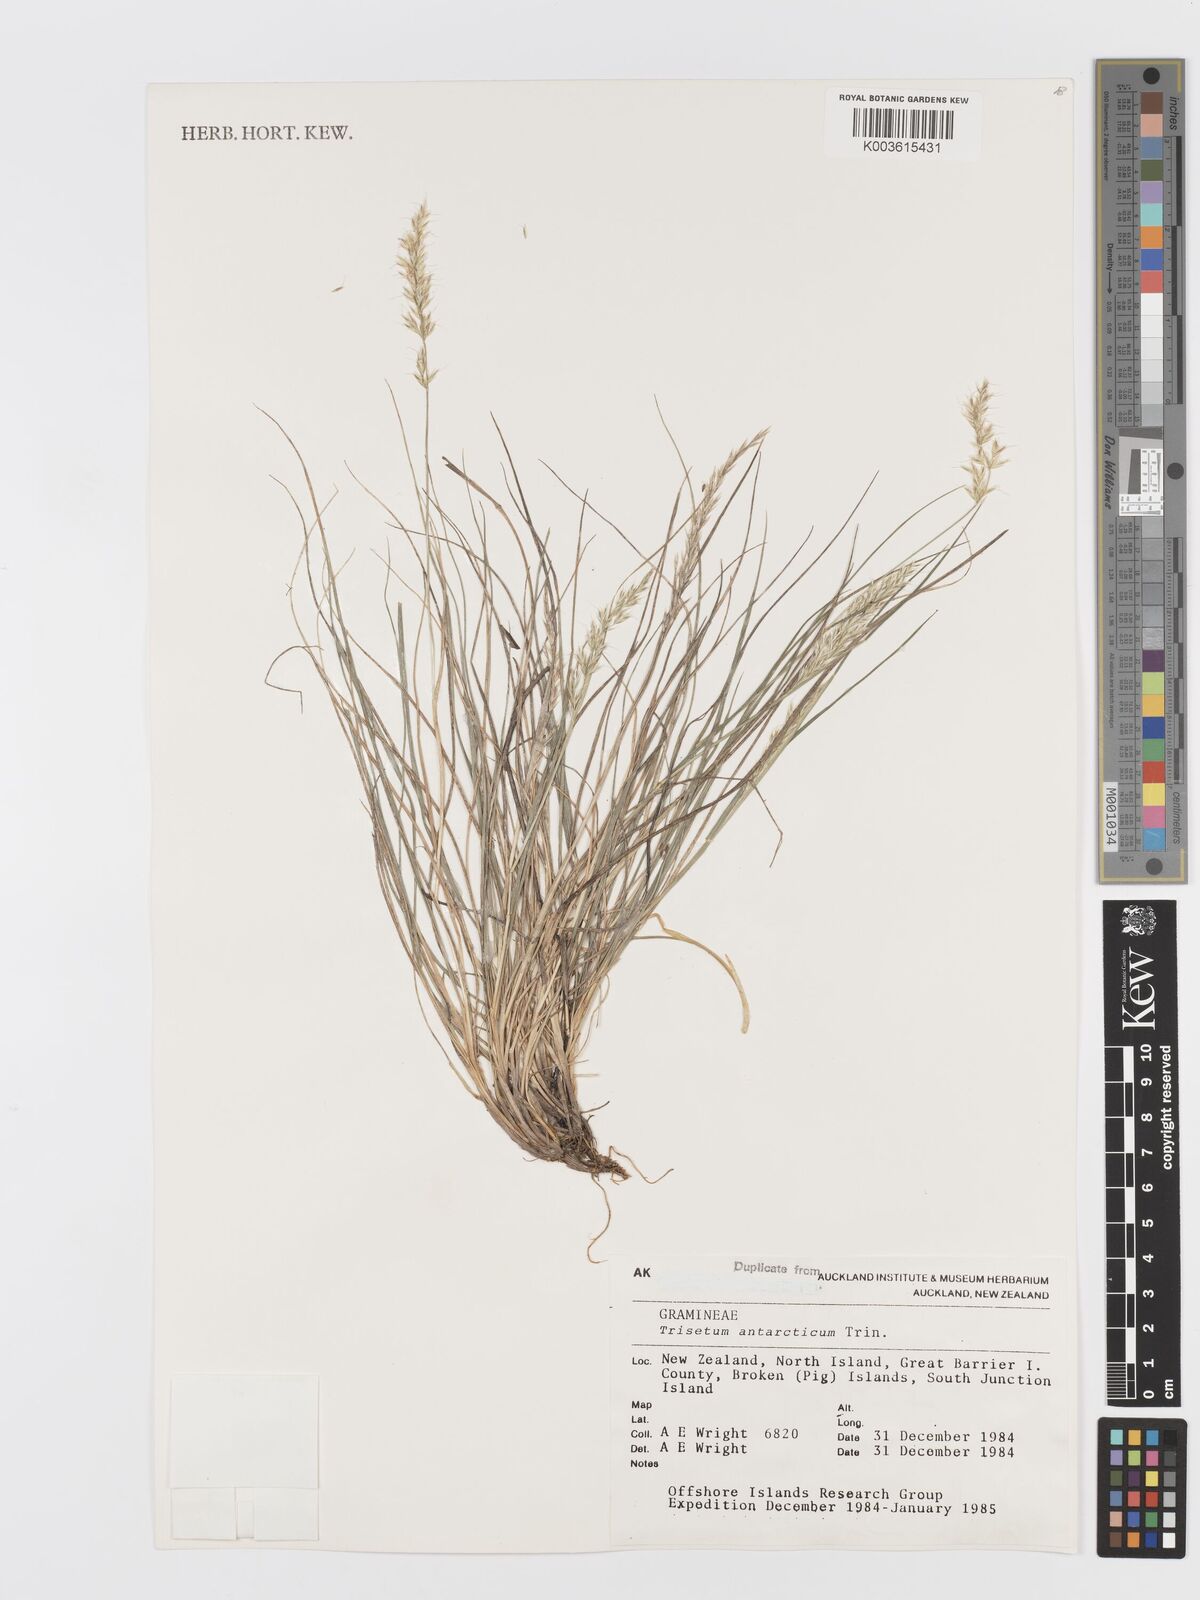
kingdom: Plantae
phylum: Tracheophyta
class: Liliopsida
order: Poales
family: Poaceae
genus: Koeleria
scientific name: Koeleria antarctica
